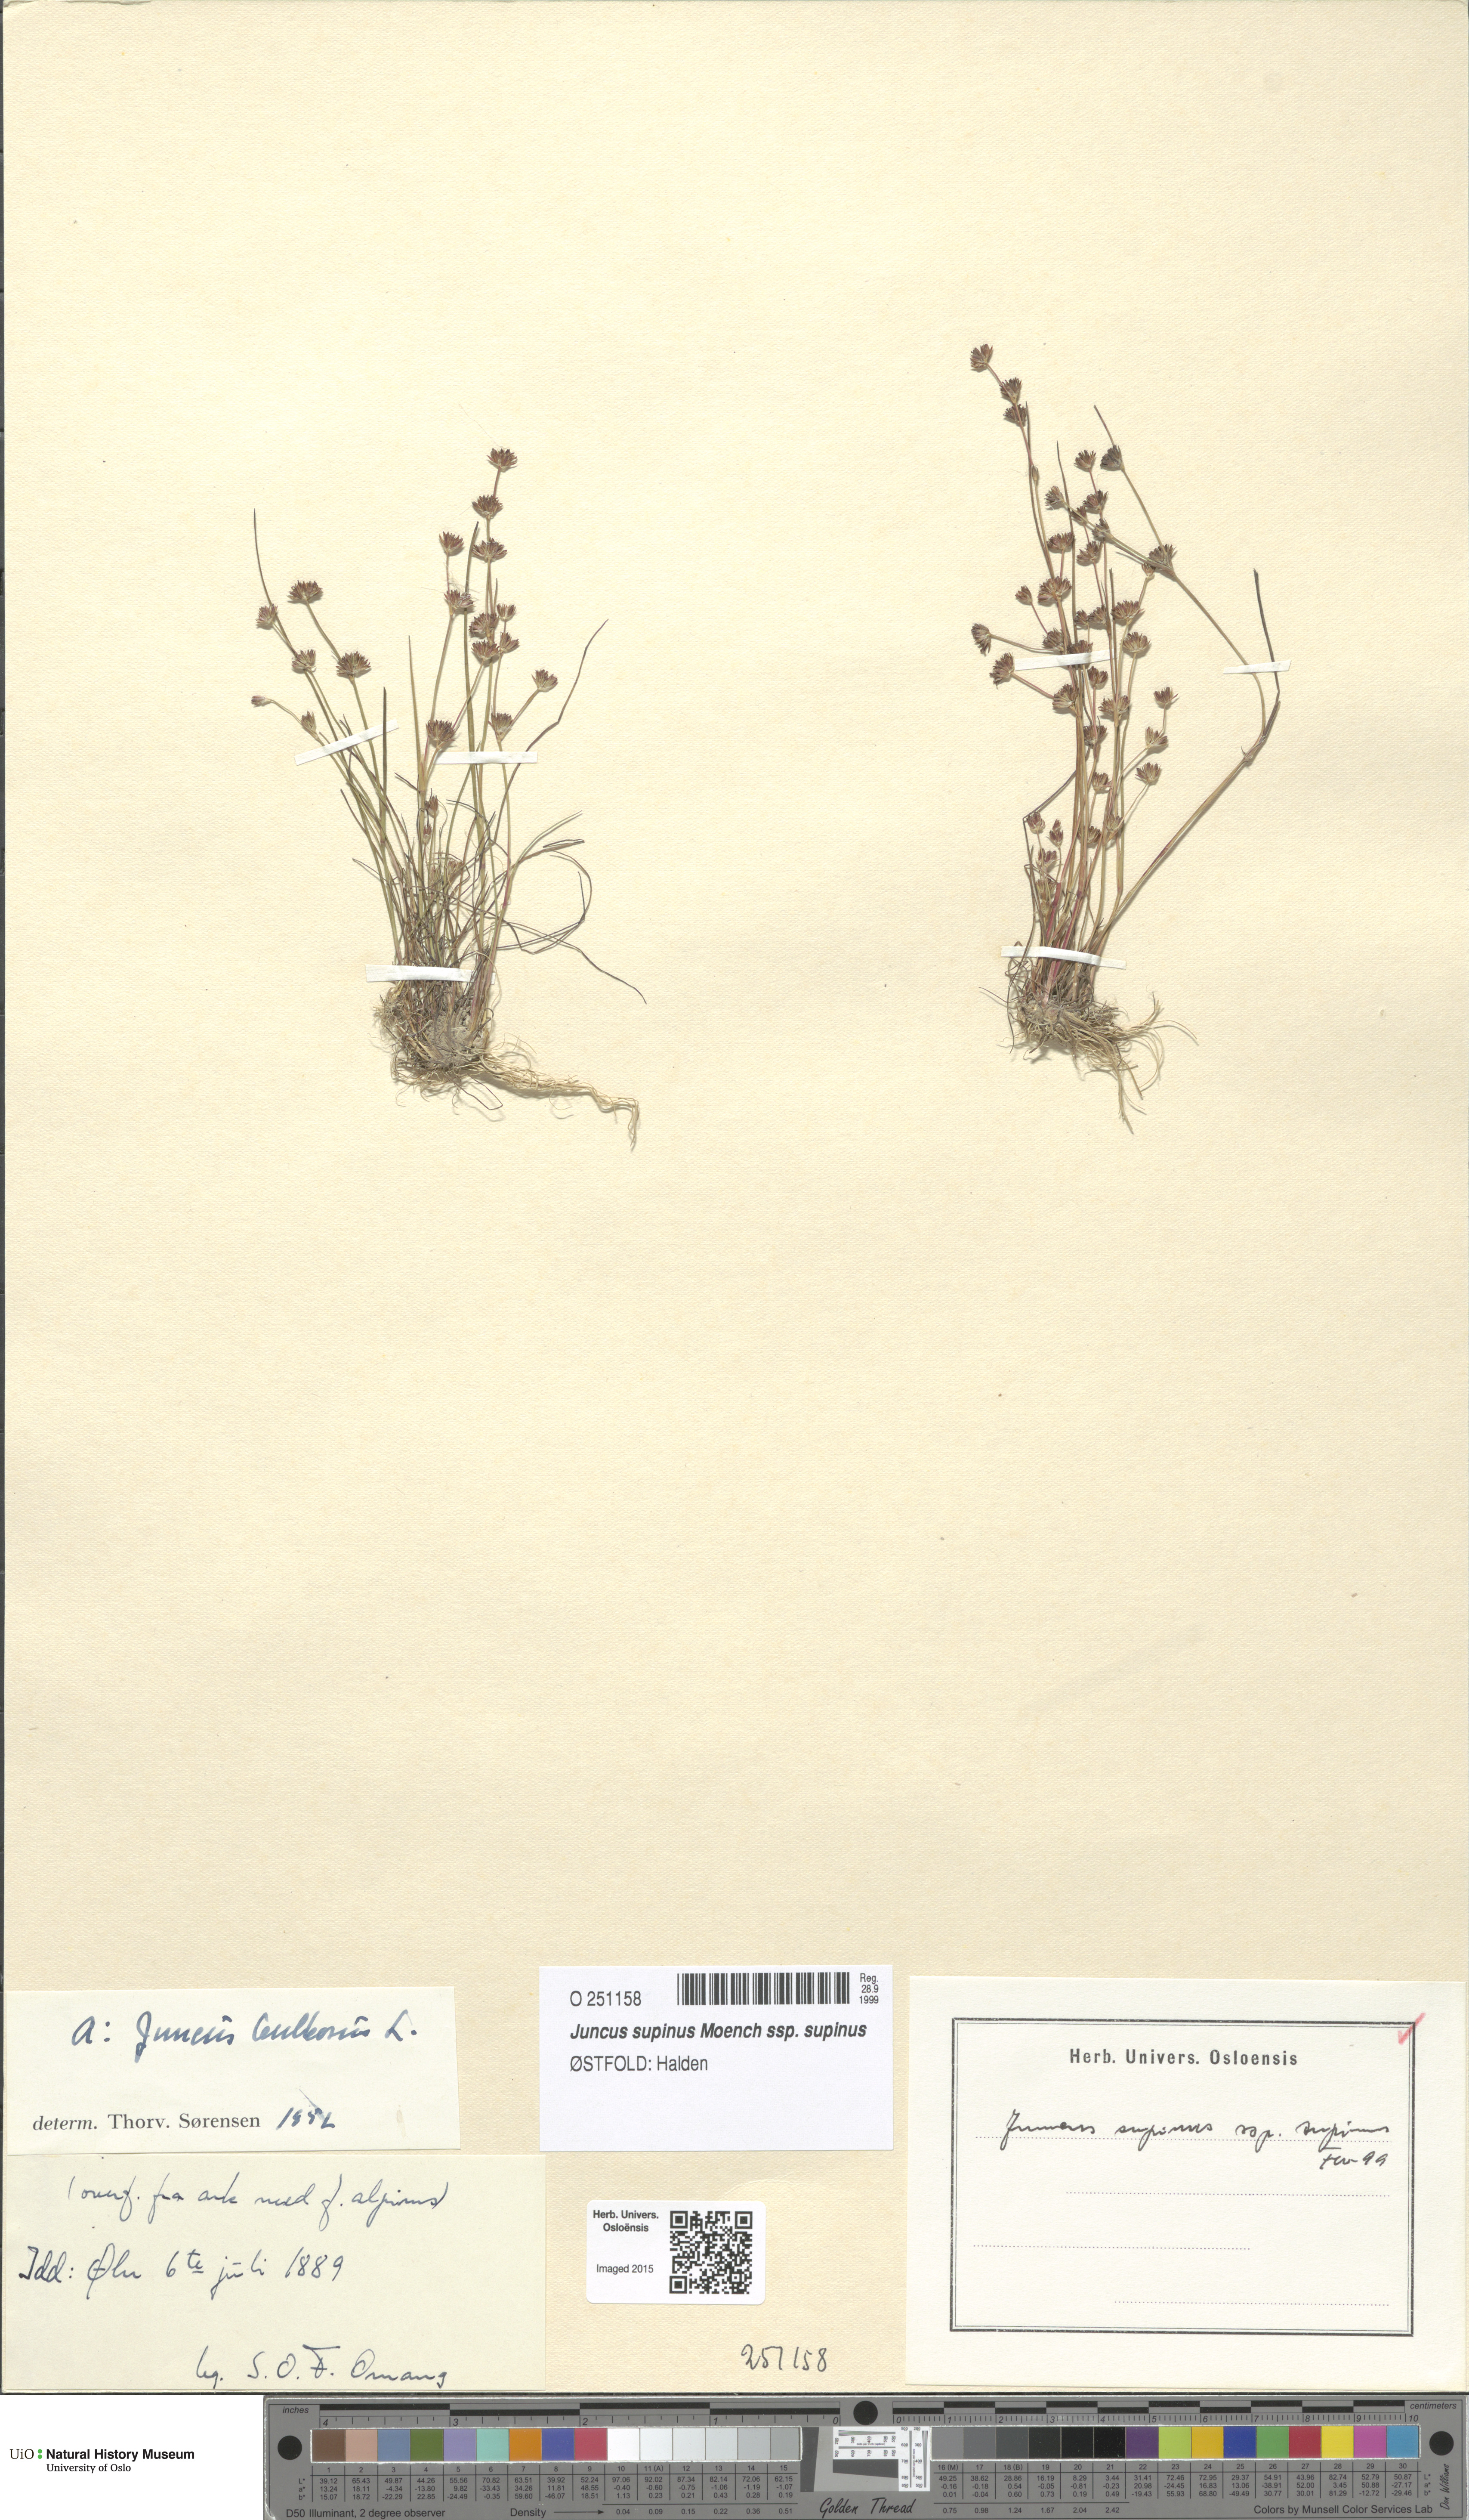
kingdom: Plantae
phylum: Tracheophyta
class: Liliopsida
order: Poales
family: Juncaceae
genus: Juncus
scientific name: Juncus bulbosus
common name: Bulbous rush
